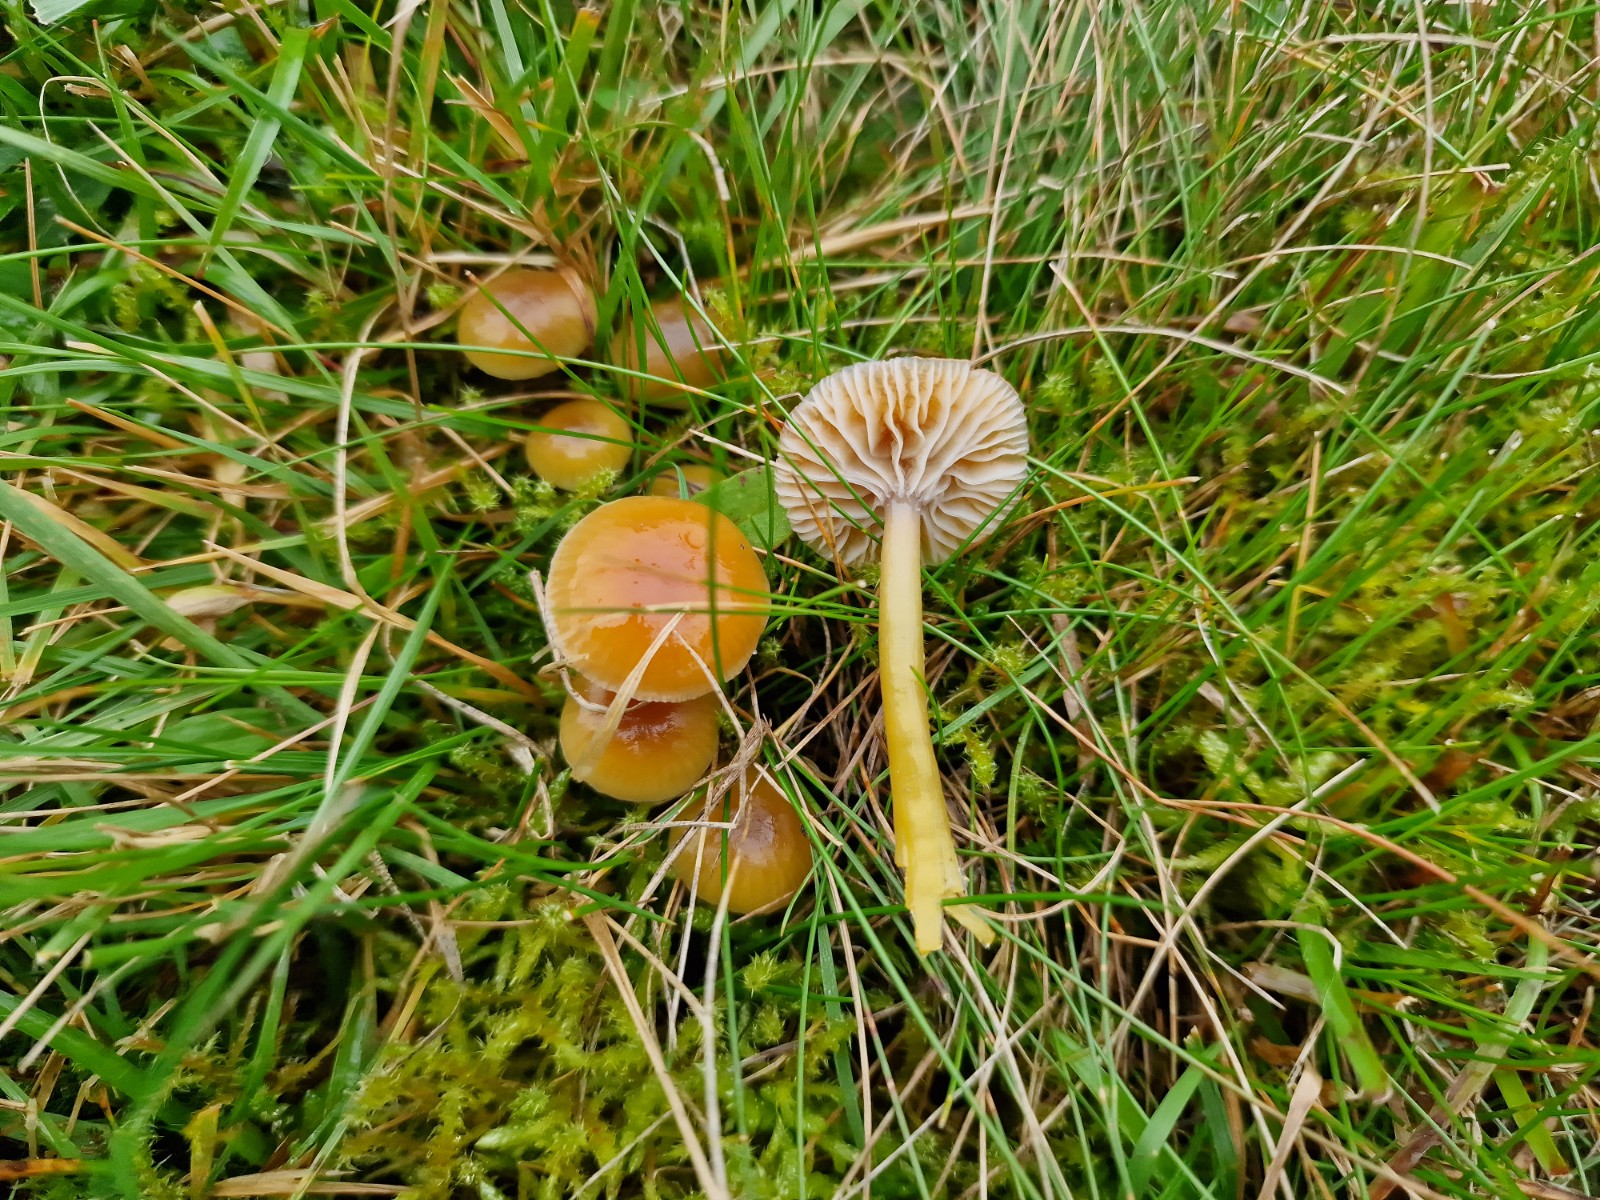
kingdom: Fungi
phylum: Basidiomycota
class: Agaricomycetes
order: Agaricales
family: Hygrophoraceae
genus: Gliophorus
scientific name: Gliophorus laetus
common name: brusk-vokshat
